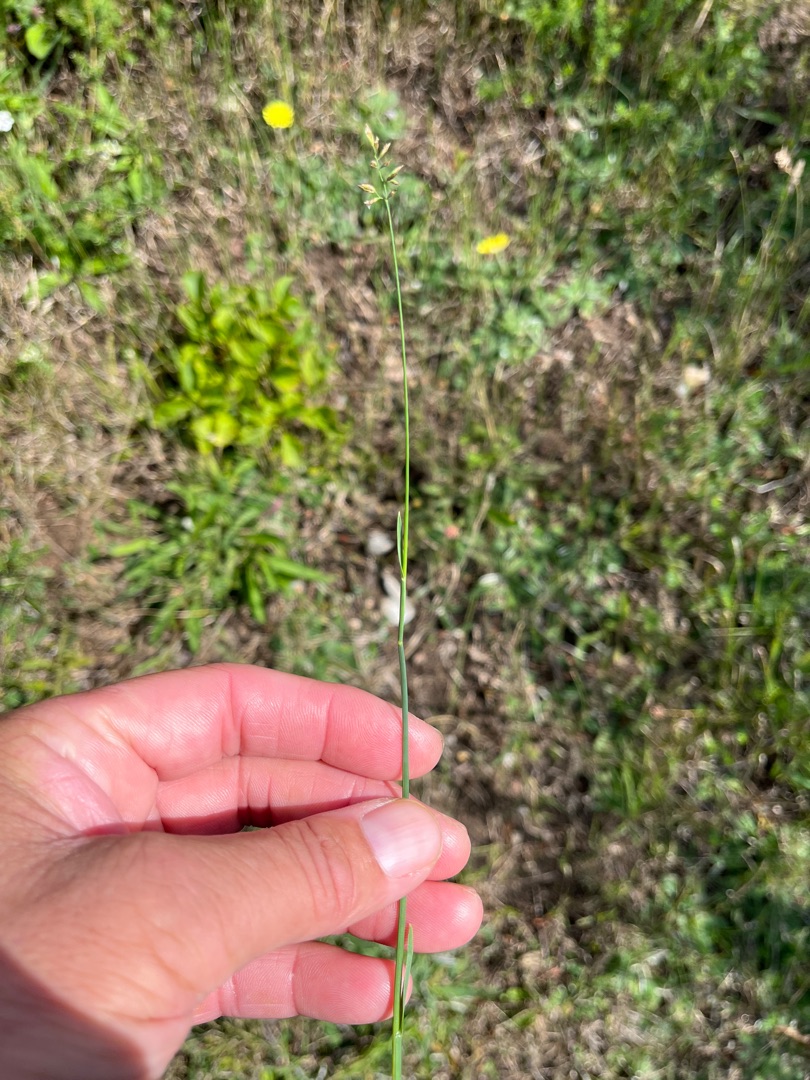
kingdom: Plantae
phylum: Tracheophyta
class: Liliopsida
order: Poales
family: Poaceae
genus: Poa
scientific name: Poa compressa
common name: Fladstrået rapgræs
